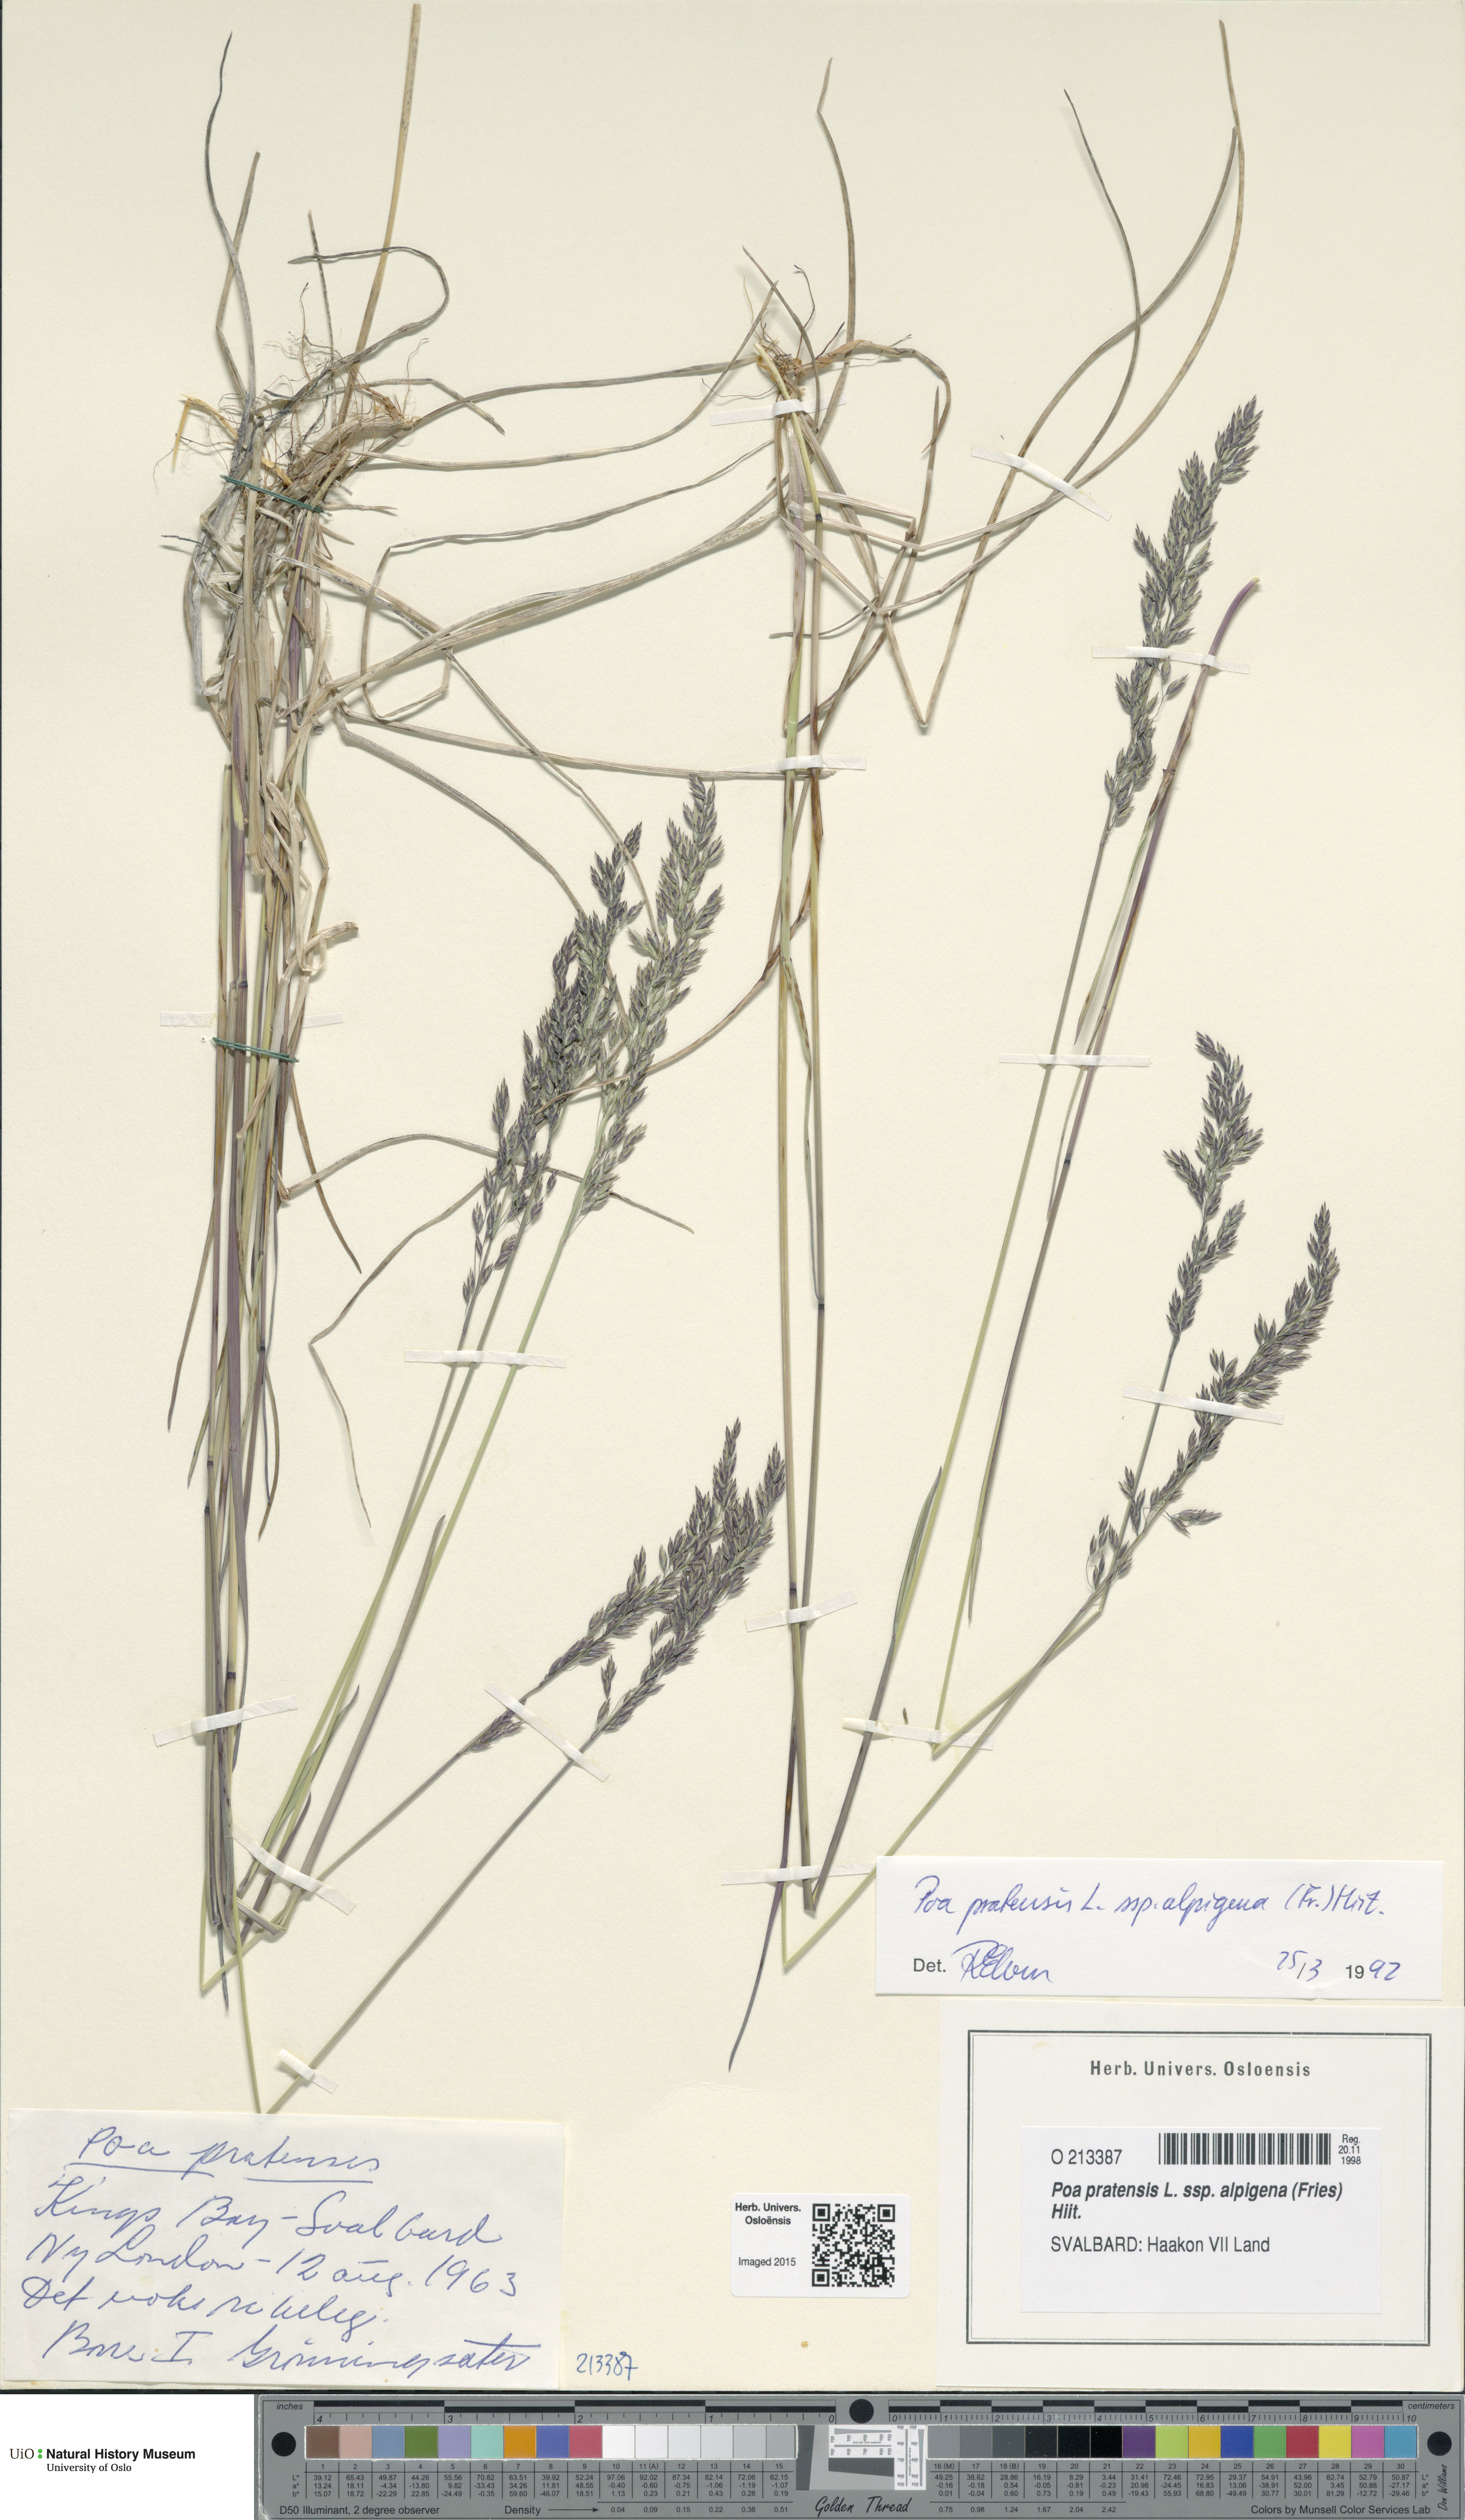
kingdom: Plantae
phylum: Tracheophyta
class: Liliopsida
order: Poales
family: Poaceae
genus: Poa
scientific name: Poa alpigena
